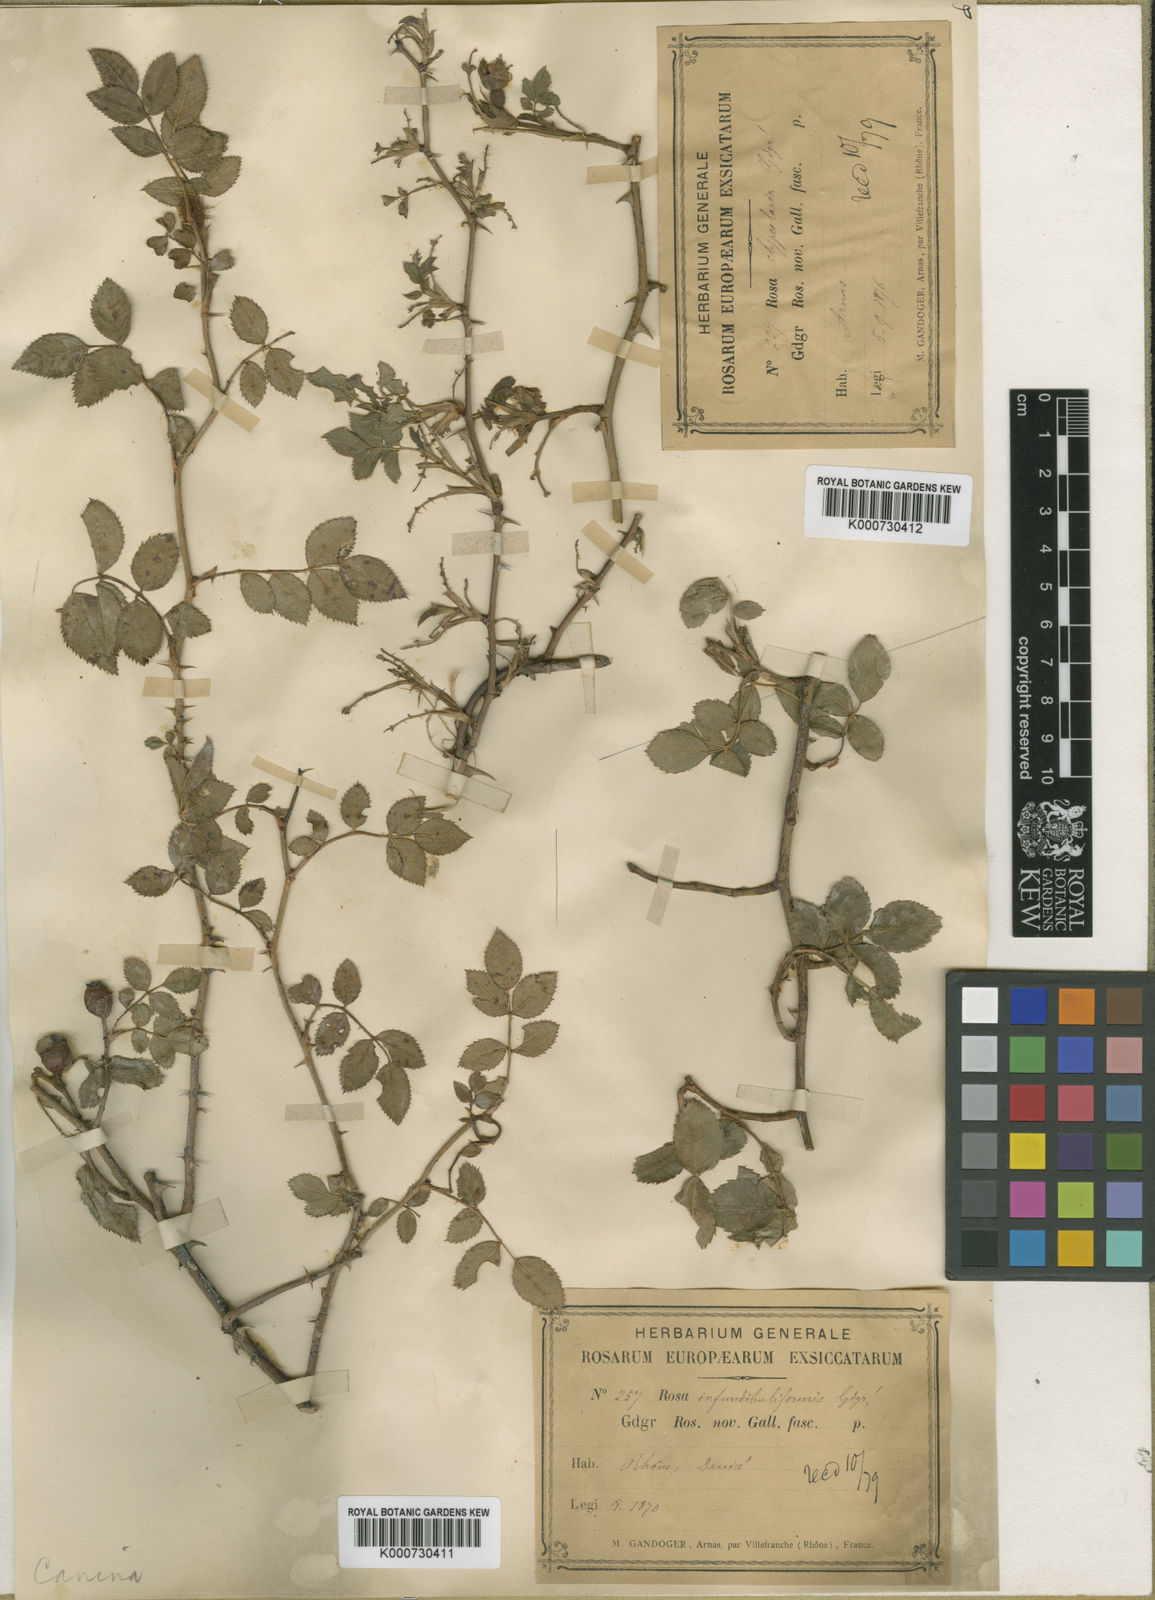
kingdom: Plantae
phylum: Tracheophyta
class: Magnoliopsida
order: Rosales
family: Rosaceae
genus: Rosa
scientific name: Rosa canina
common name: Dog rose
